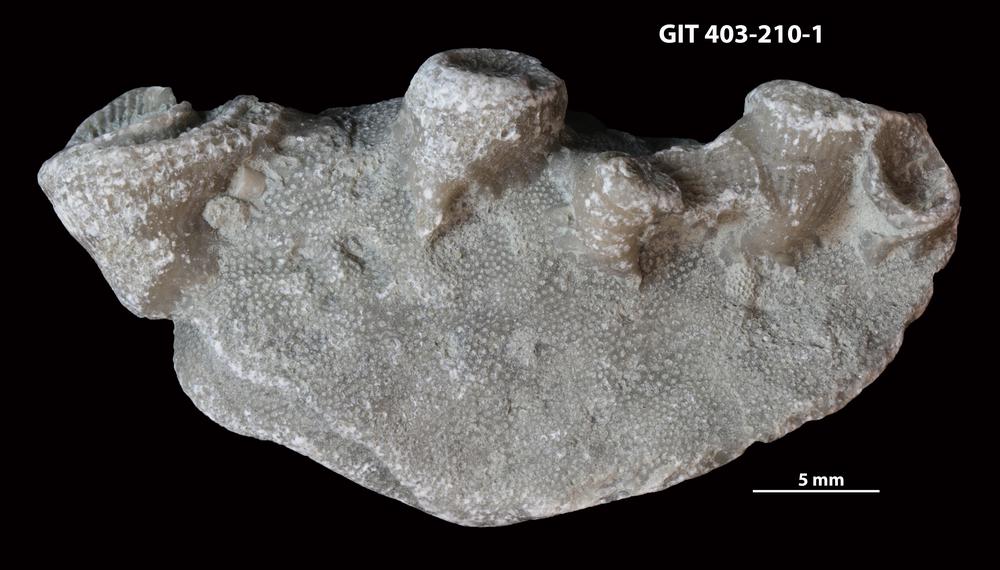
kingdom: Animalia
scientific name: Animalia
